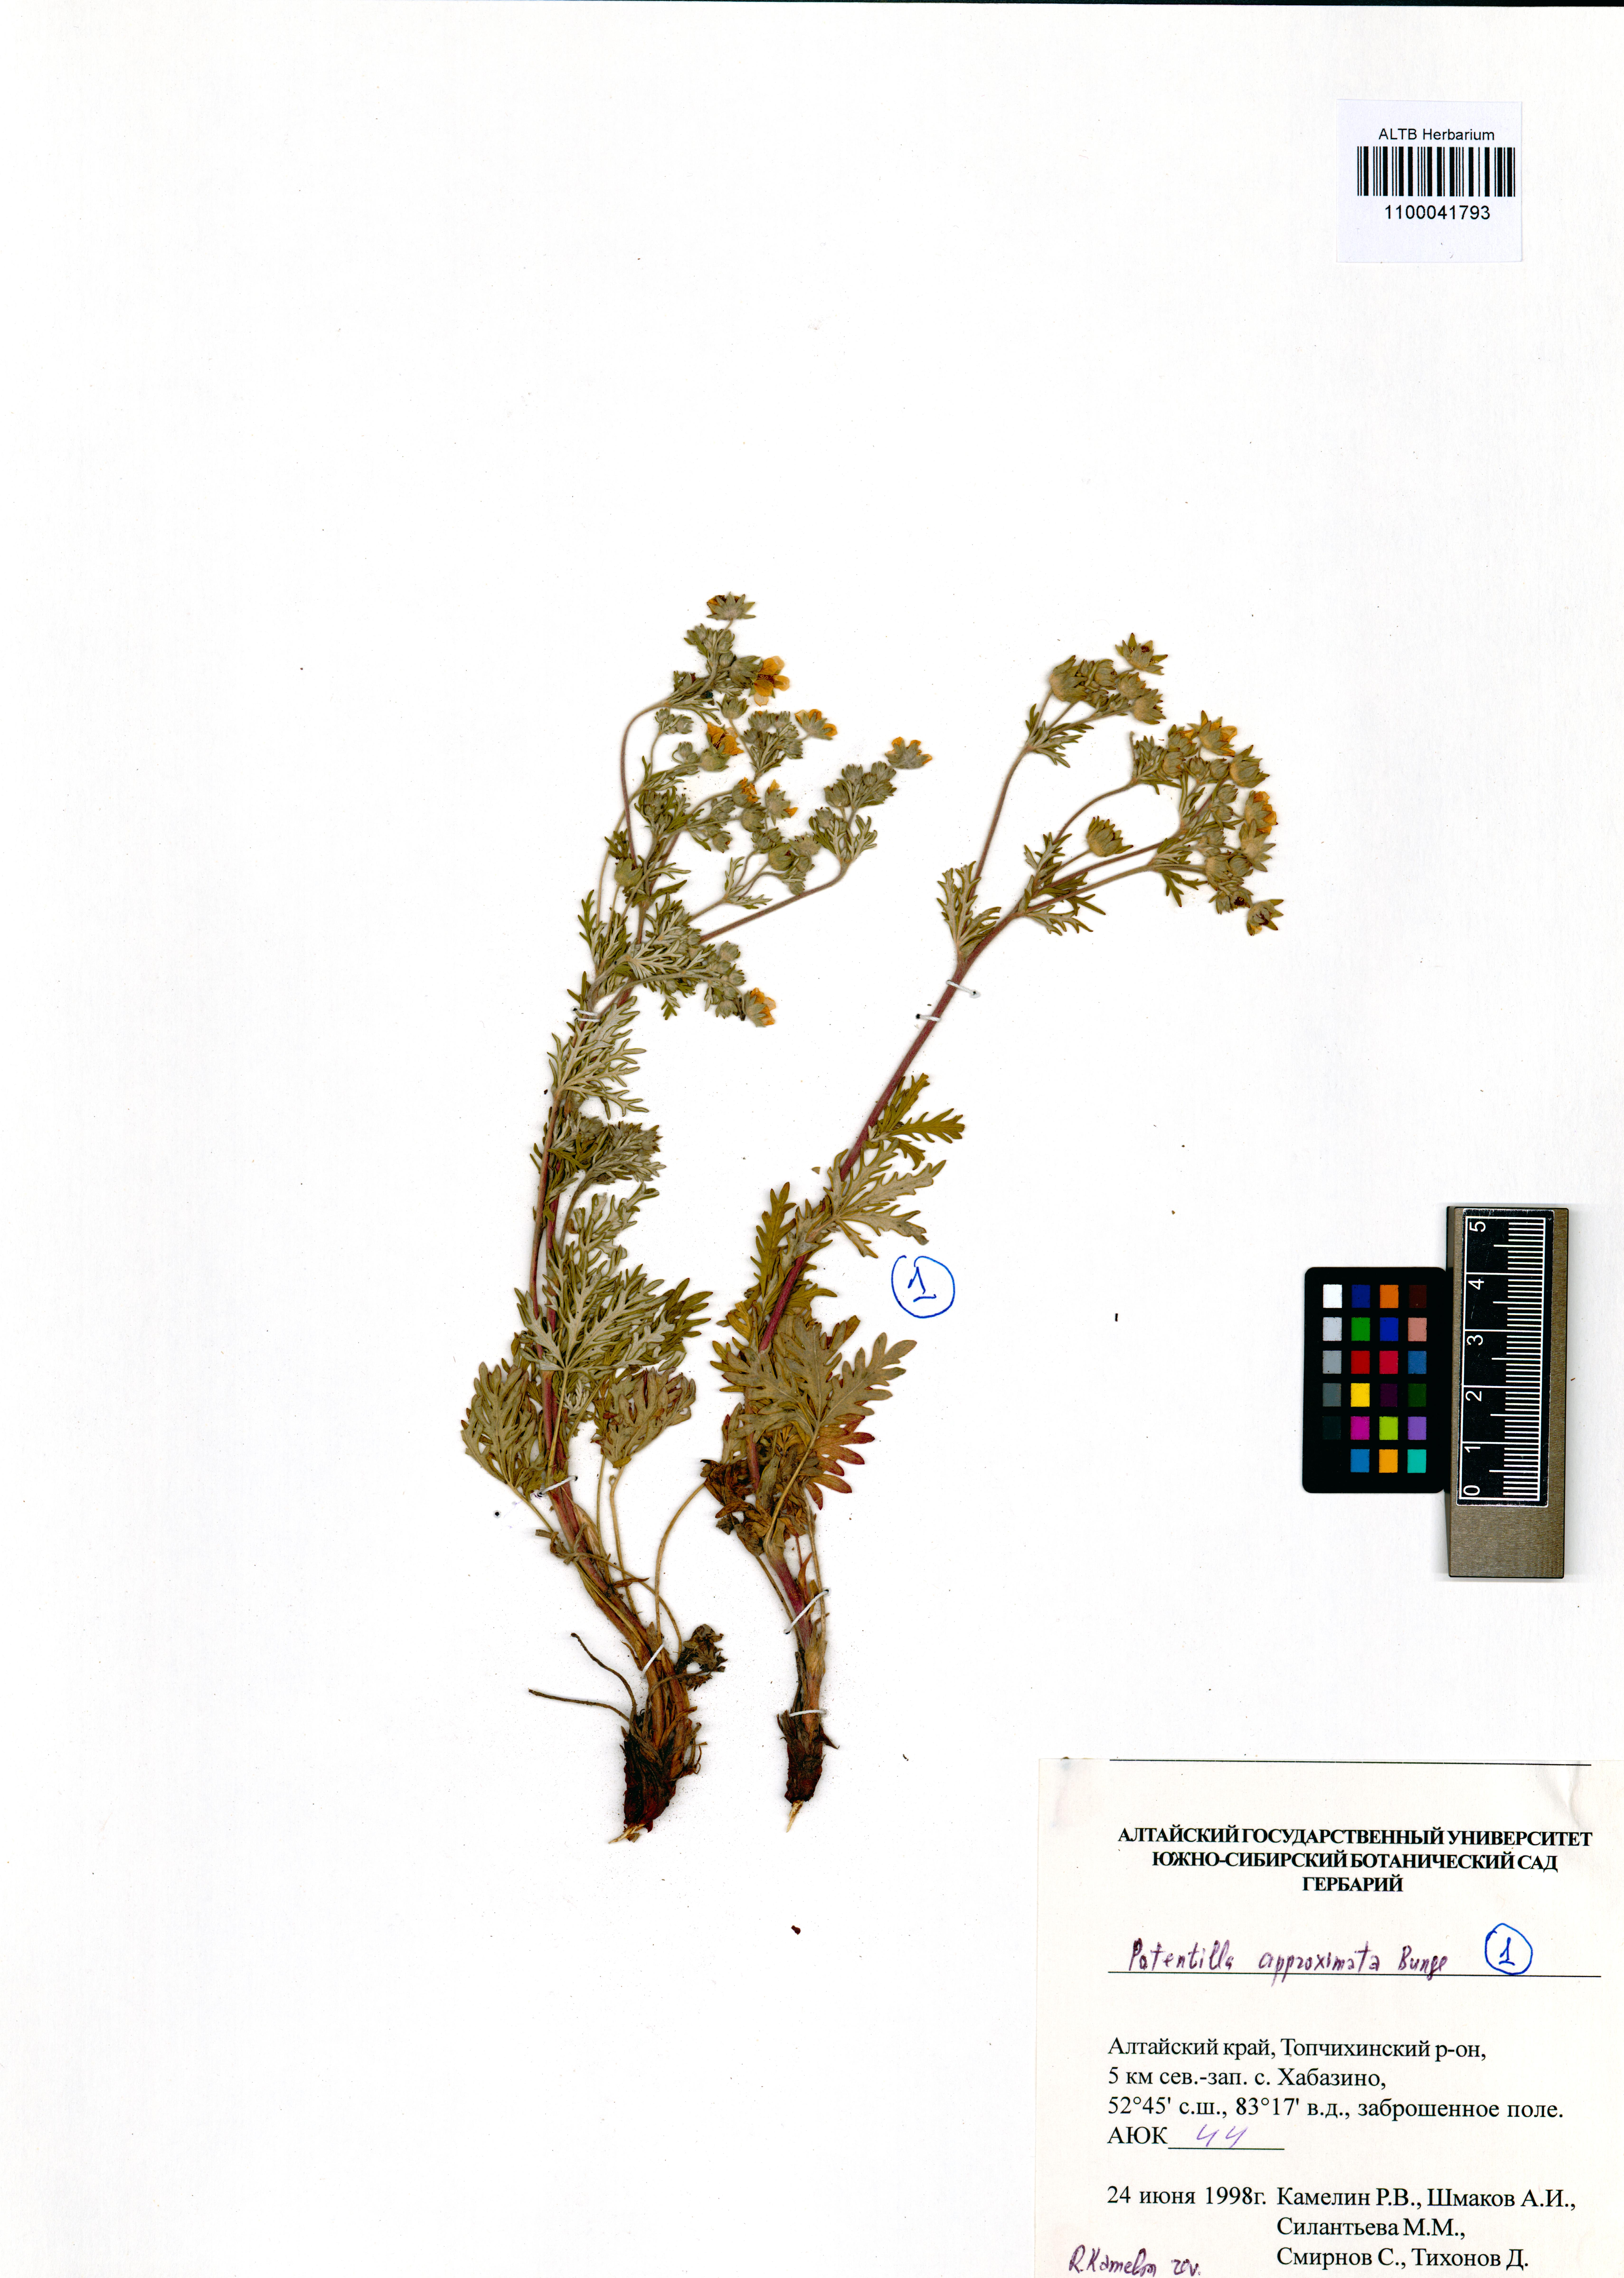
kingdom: Plantae
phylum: Tracheophyta
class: Magnoliopsida
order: Rosales
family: Rosaceae
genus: Potentilla
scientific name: Potentilla conferta
